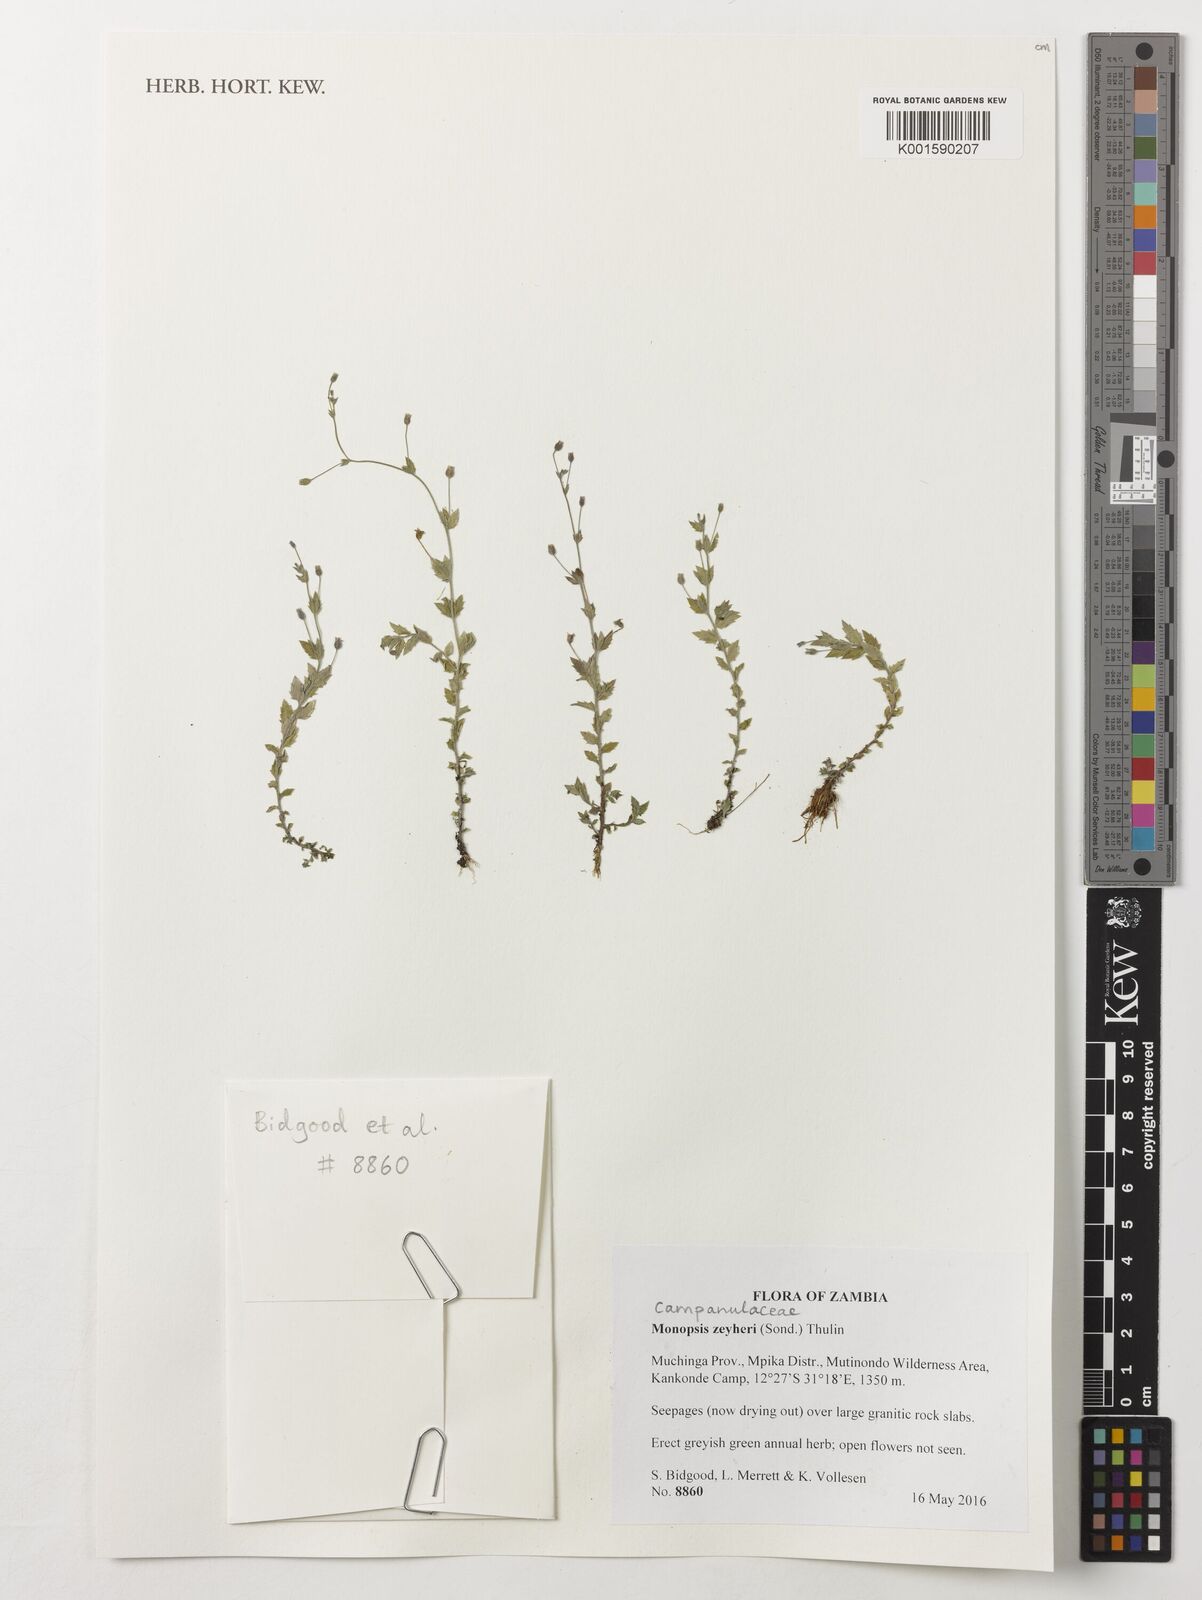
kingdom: Plantae
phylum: Tracheophyta
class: Magnoliopsida
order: Asterales
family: Campanulaceae
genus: Monopsis
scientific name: Monopsis zeyheri
